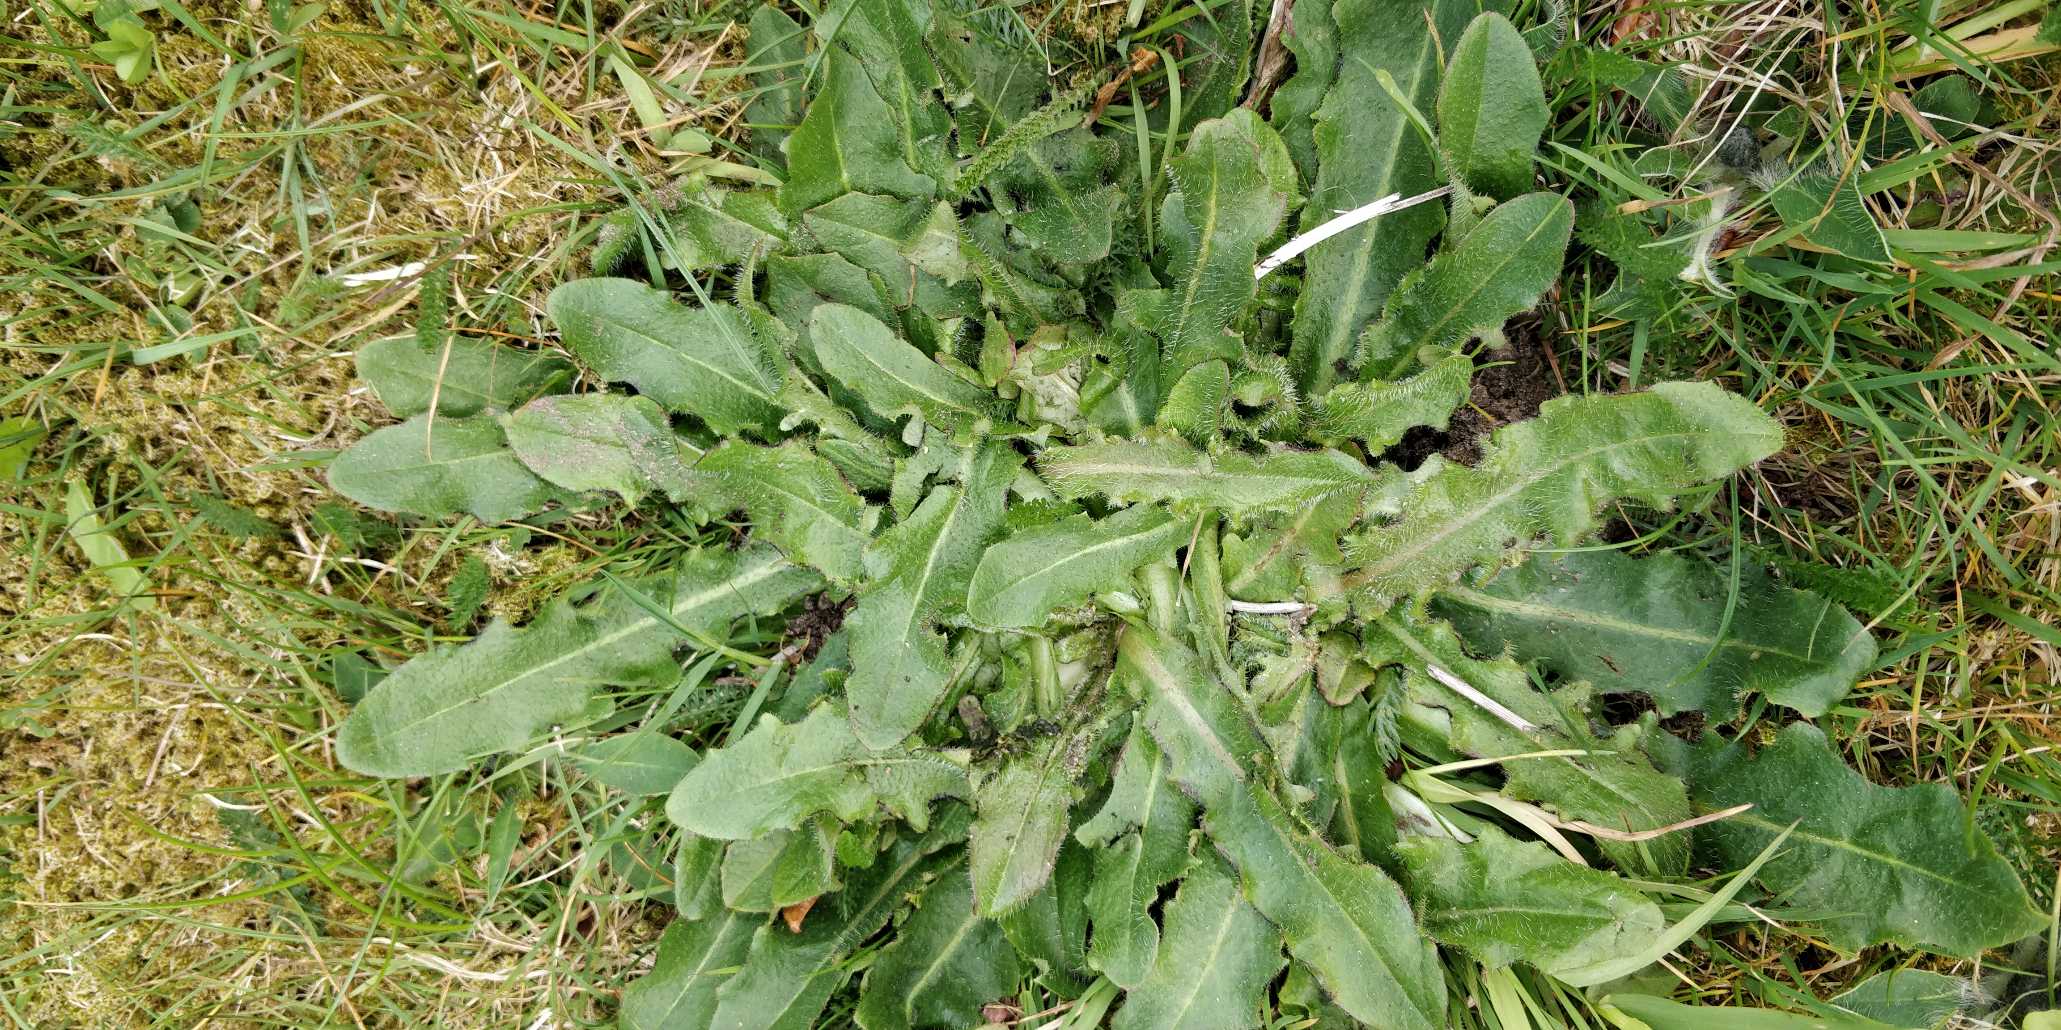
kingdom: Plantae
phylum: Tracheophyta
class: Magnoliopsida
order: Asterales
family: Asteraceae
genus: Hypochaeris
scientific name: Hypochaeris radicata
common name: Almindelig kongepen
